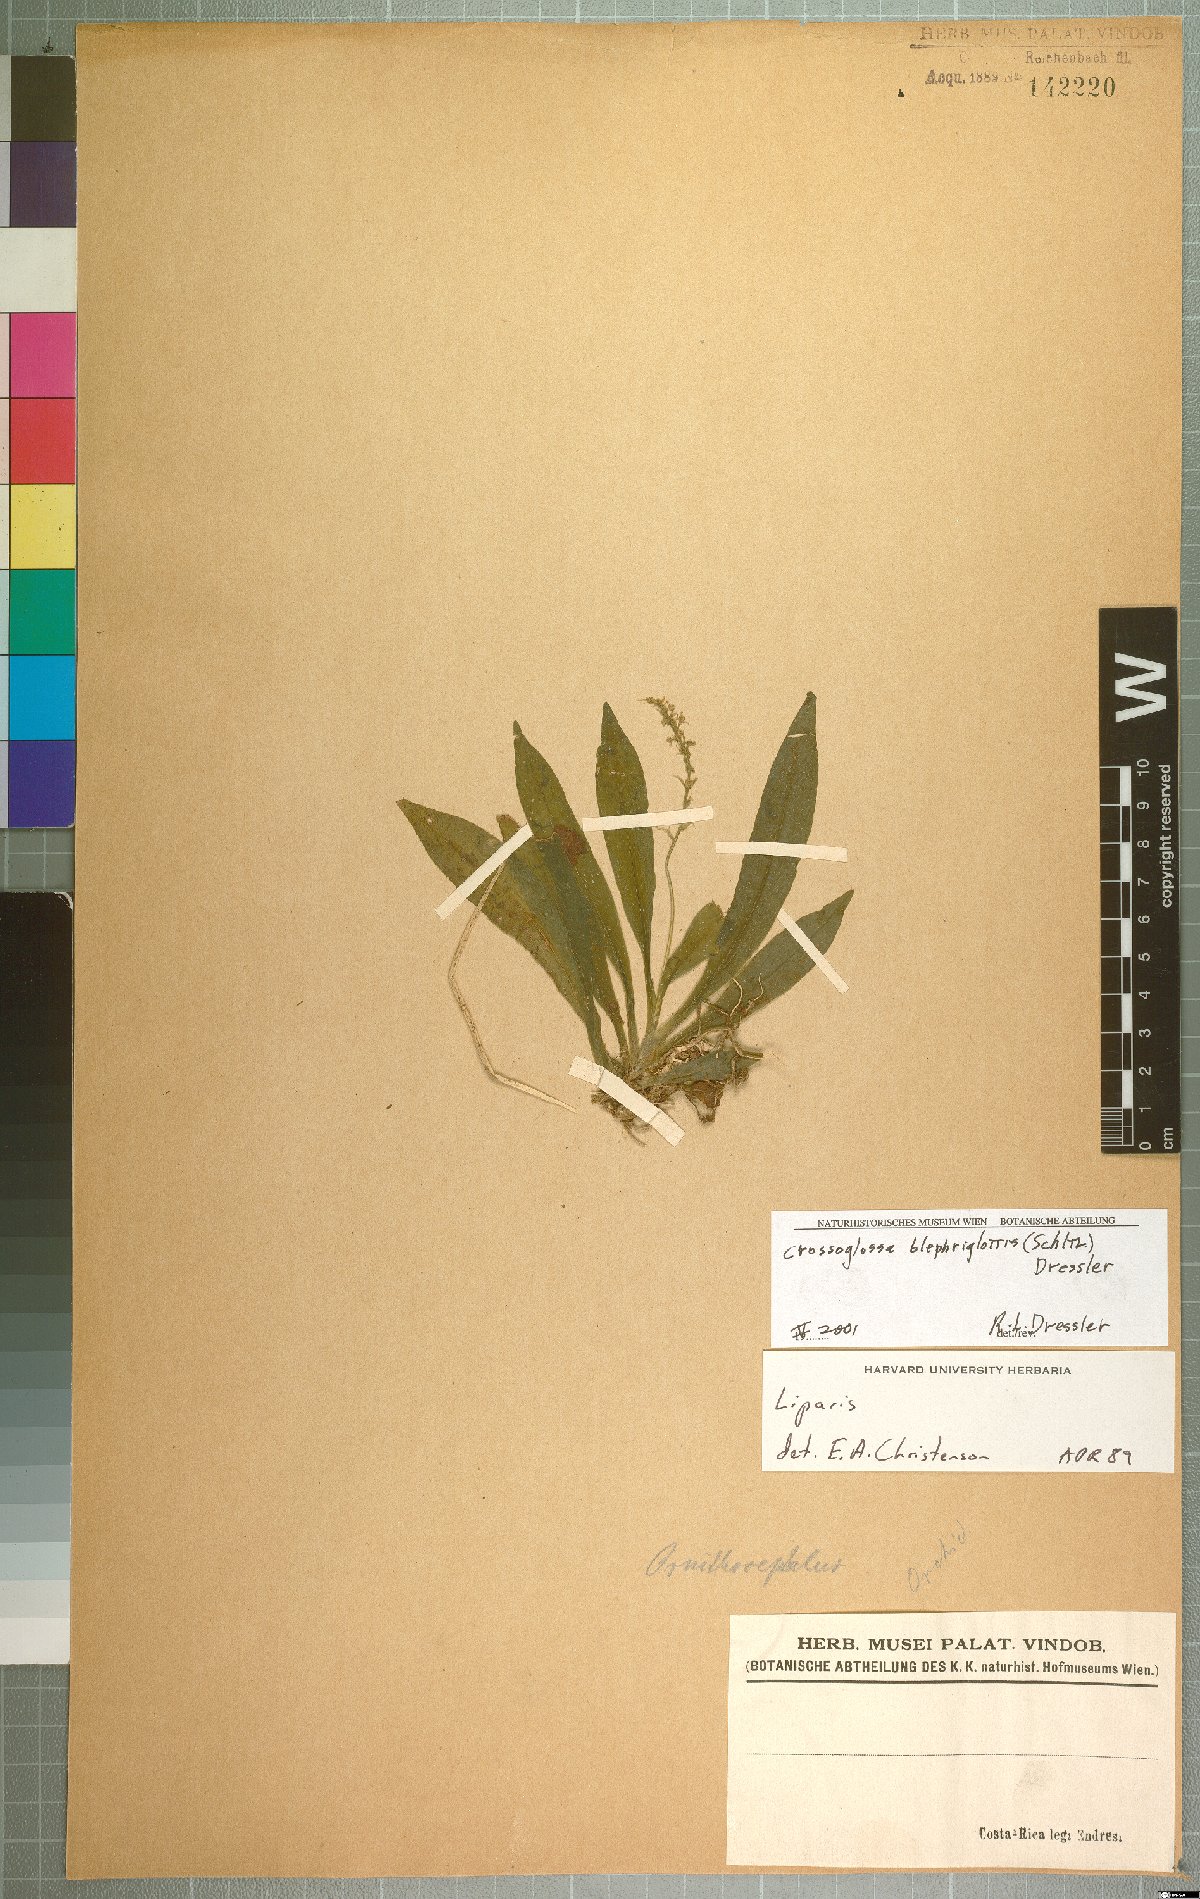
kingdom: Plantae
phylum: Tracheophyta
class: Liliopsida
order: Asparagales
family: Orchidaceae
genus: Crossoglossa
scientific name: Crossoglossa blephariglottis
